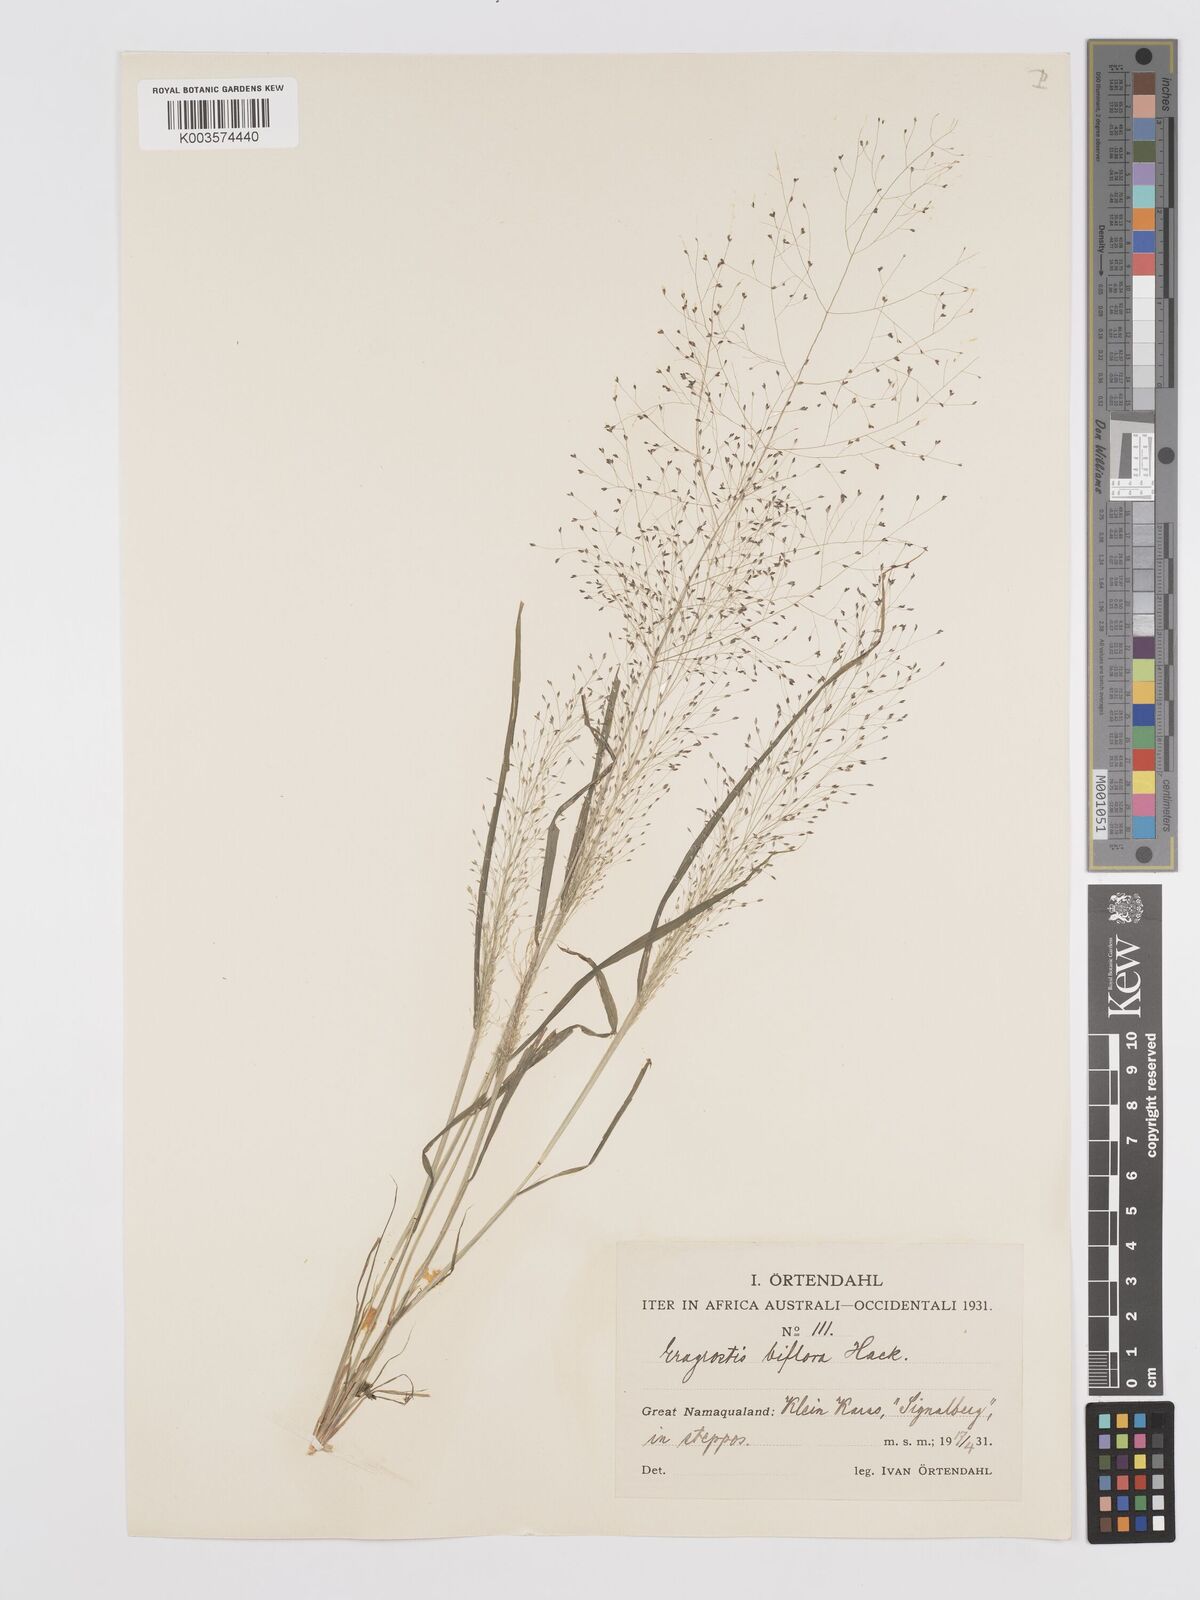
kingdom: Plantae
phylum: Tracheophyta
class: Liliopsida
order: Poales
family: Poaceae
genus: Eragrostis
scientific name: Eragrostis biflora
